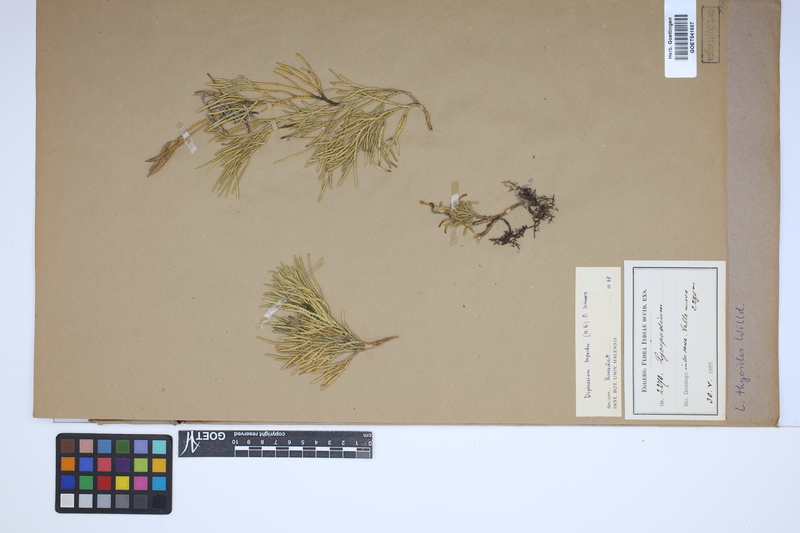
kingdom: Plantae
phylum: Tracheophyta
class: Lycopodiopsida
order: Lycopodiales
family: Lycopodiaceae
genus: Diphasiastrum
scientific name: Diphasiastrum thyoides
